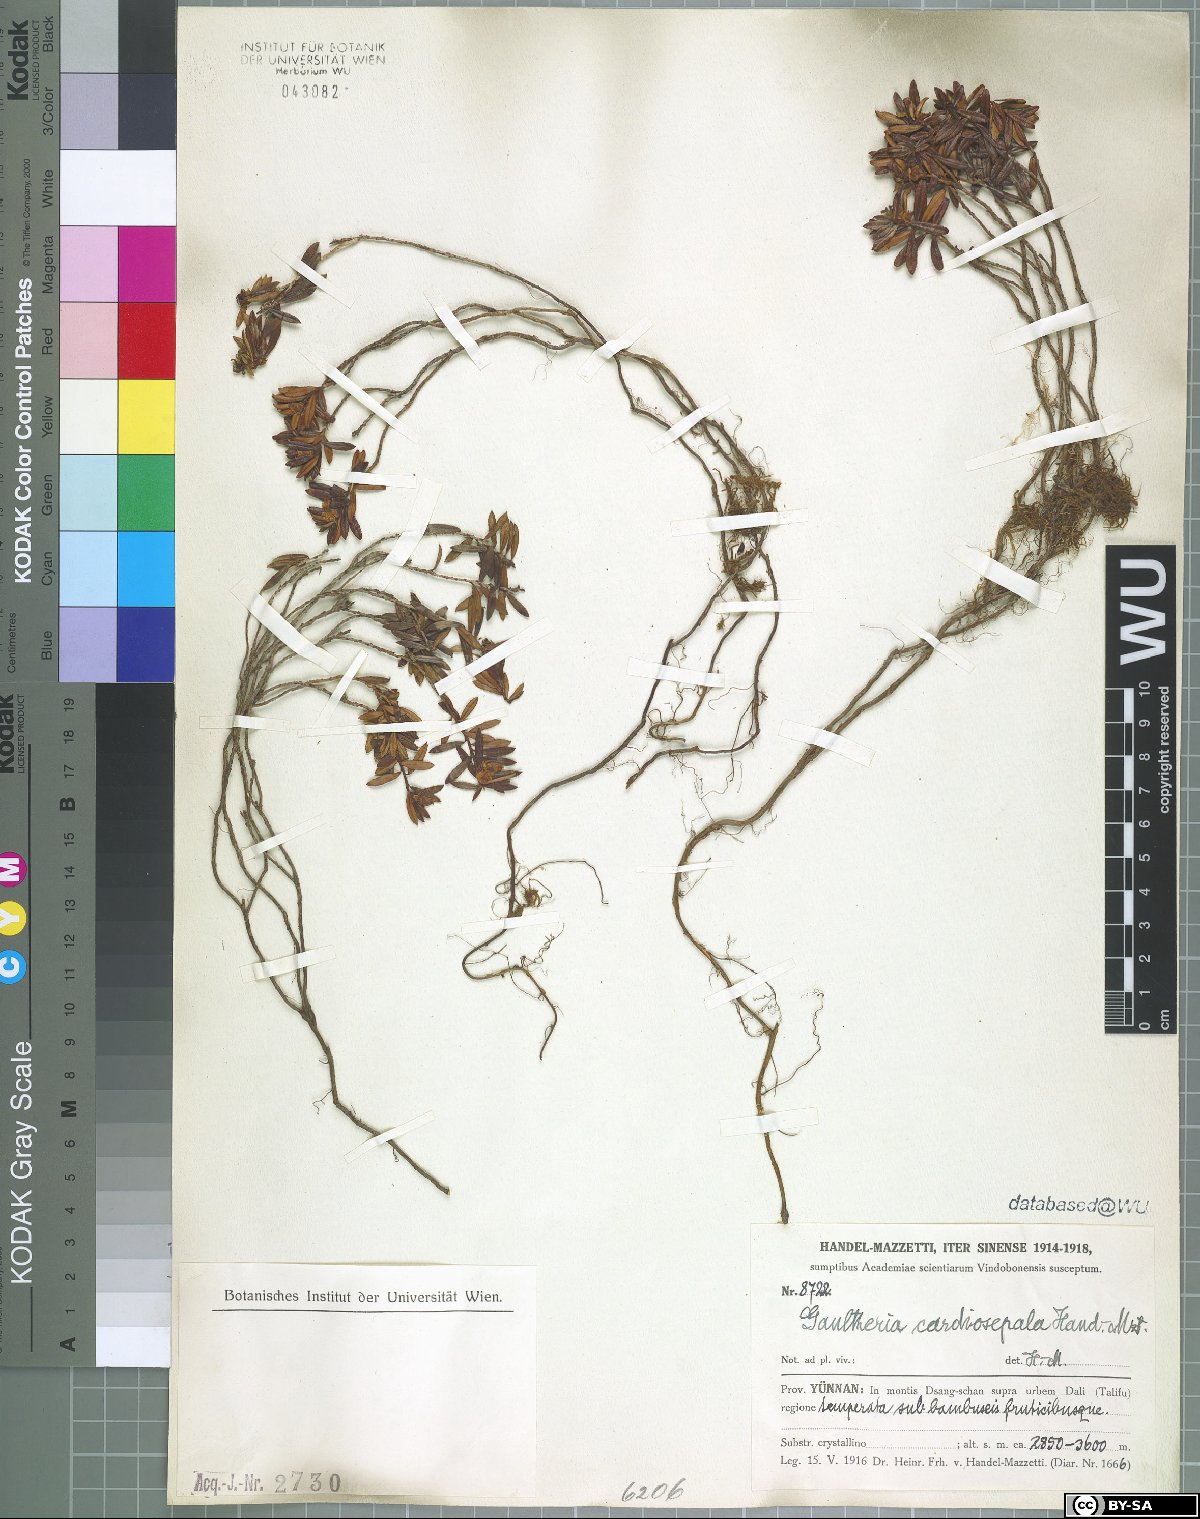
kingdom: Plantae
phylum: Tracheophyta
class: Magnoliopsida
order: Ericales
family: Ericaceae
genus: Gaultheria
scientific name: Gaultheria cardiosepala
